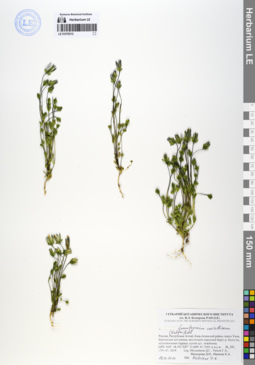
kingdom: Plantae
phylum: Tracheophyta
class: Magnoliopsida
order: Gentianales
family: Gentianaceae
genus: Lomatogonium
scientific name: Lomatogonium carinthiacum
